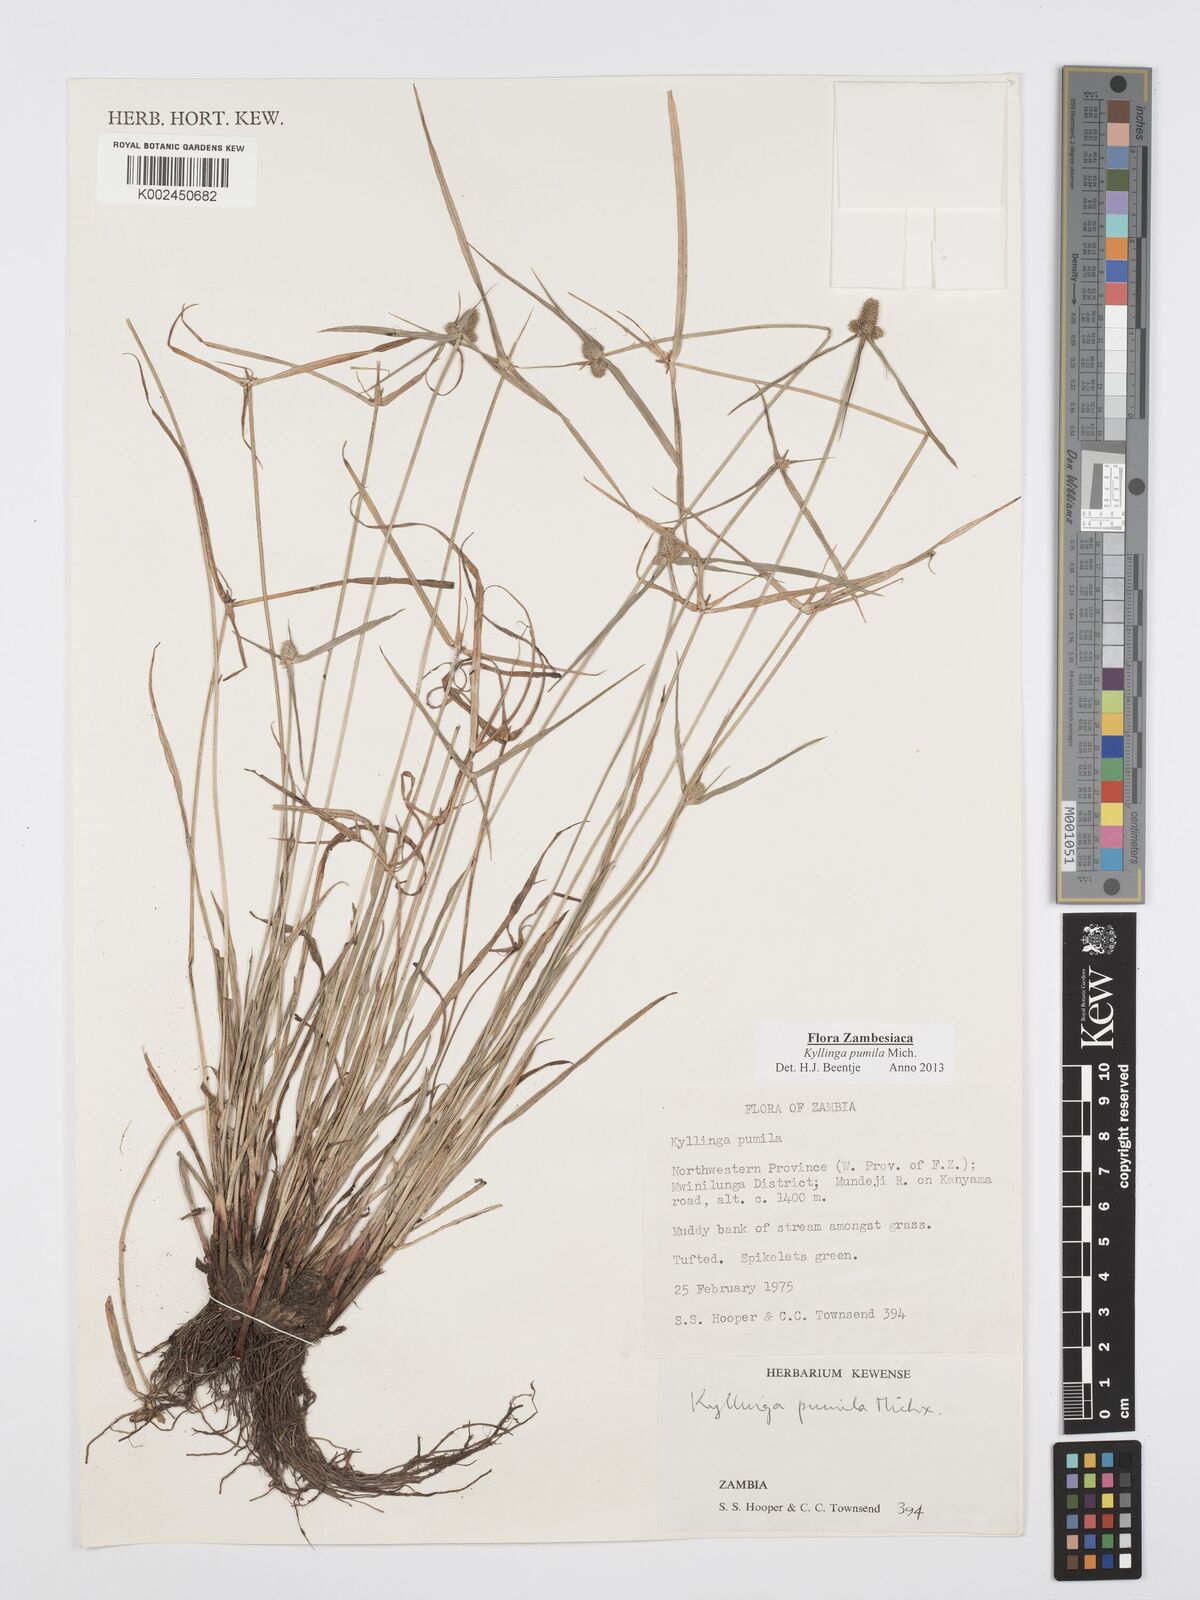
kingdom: Plantae
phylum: Tracheophyta
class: Liliopsida
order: Poales
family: Cyperaceae
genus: Cyperus
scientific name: Cyperus pumilus
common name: Low flatsedge
